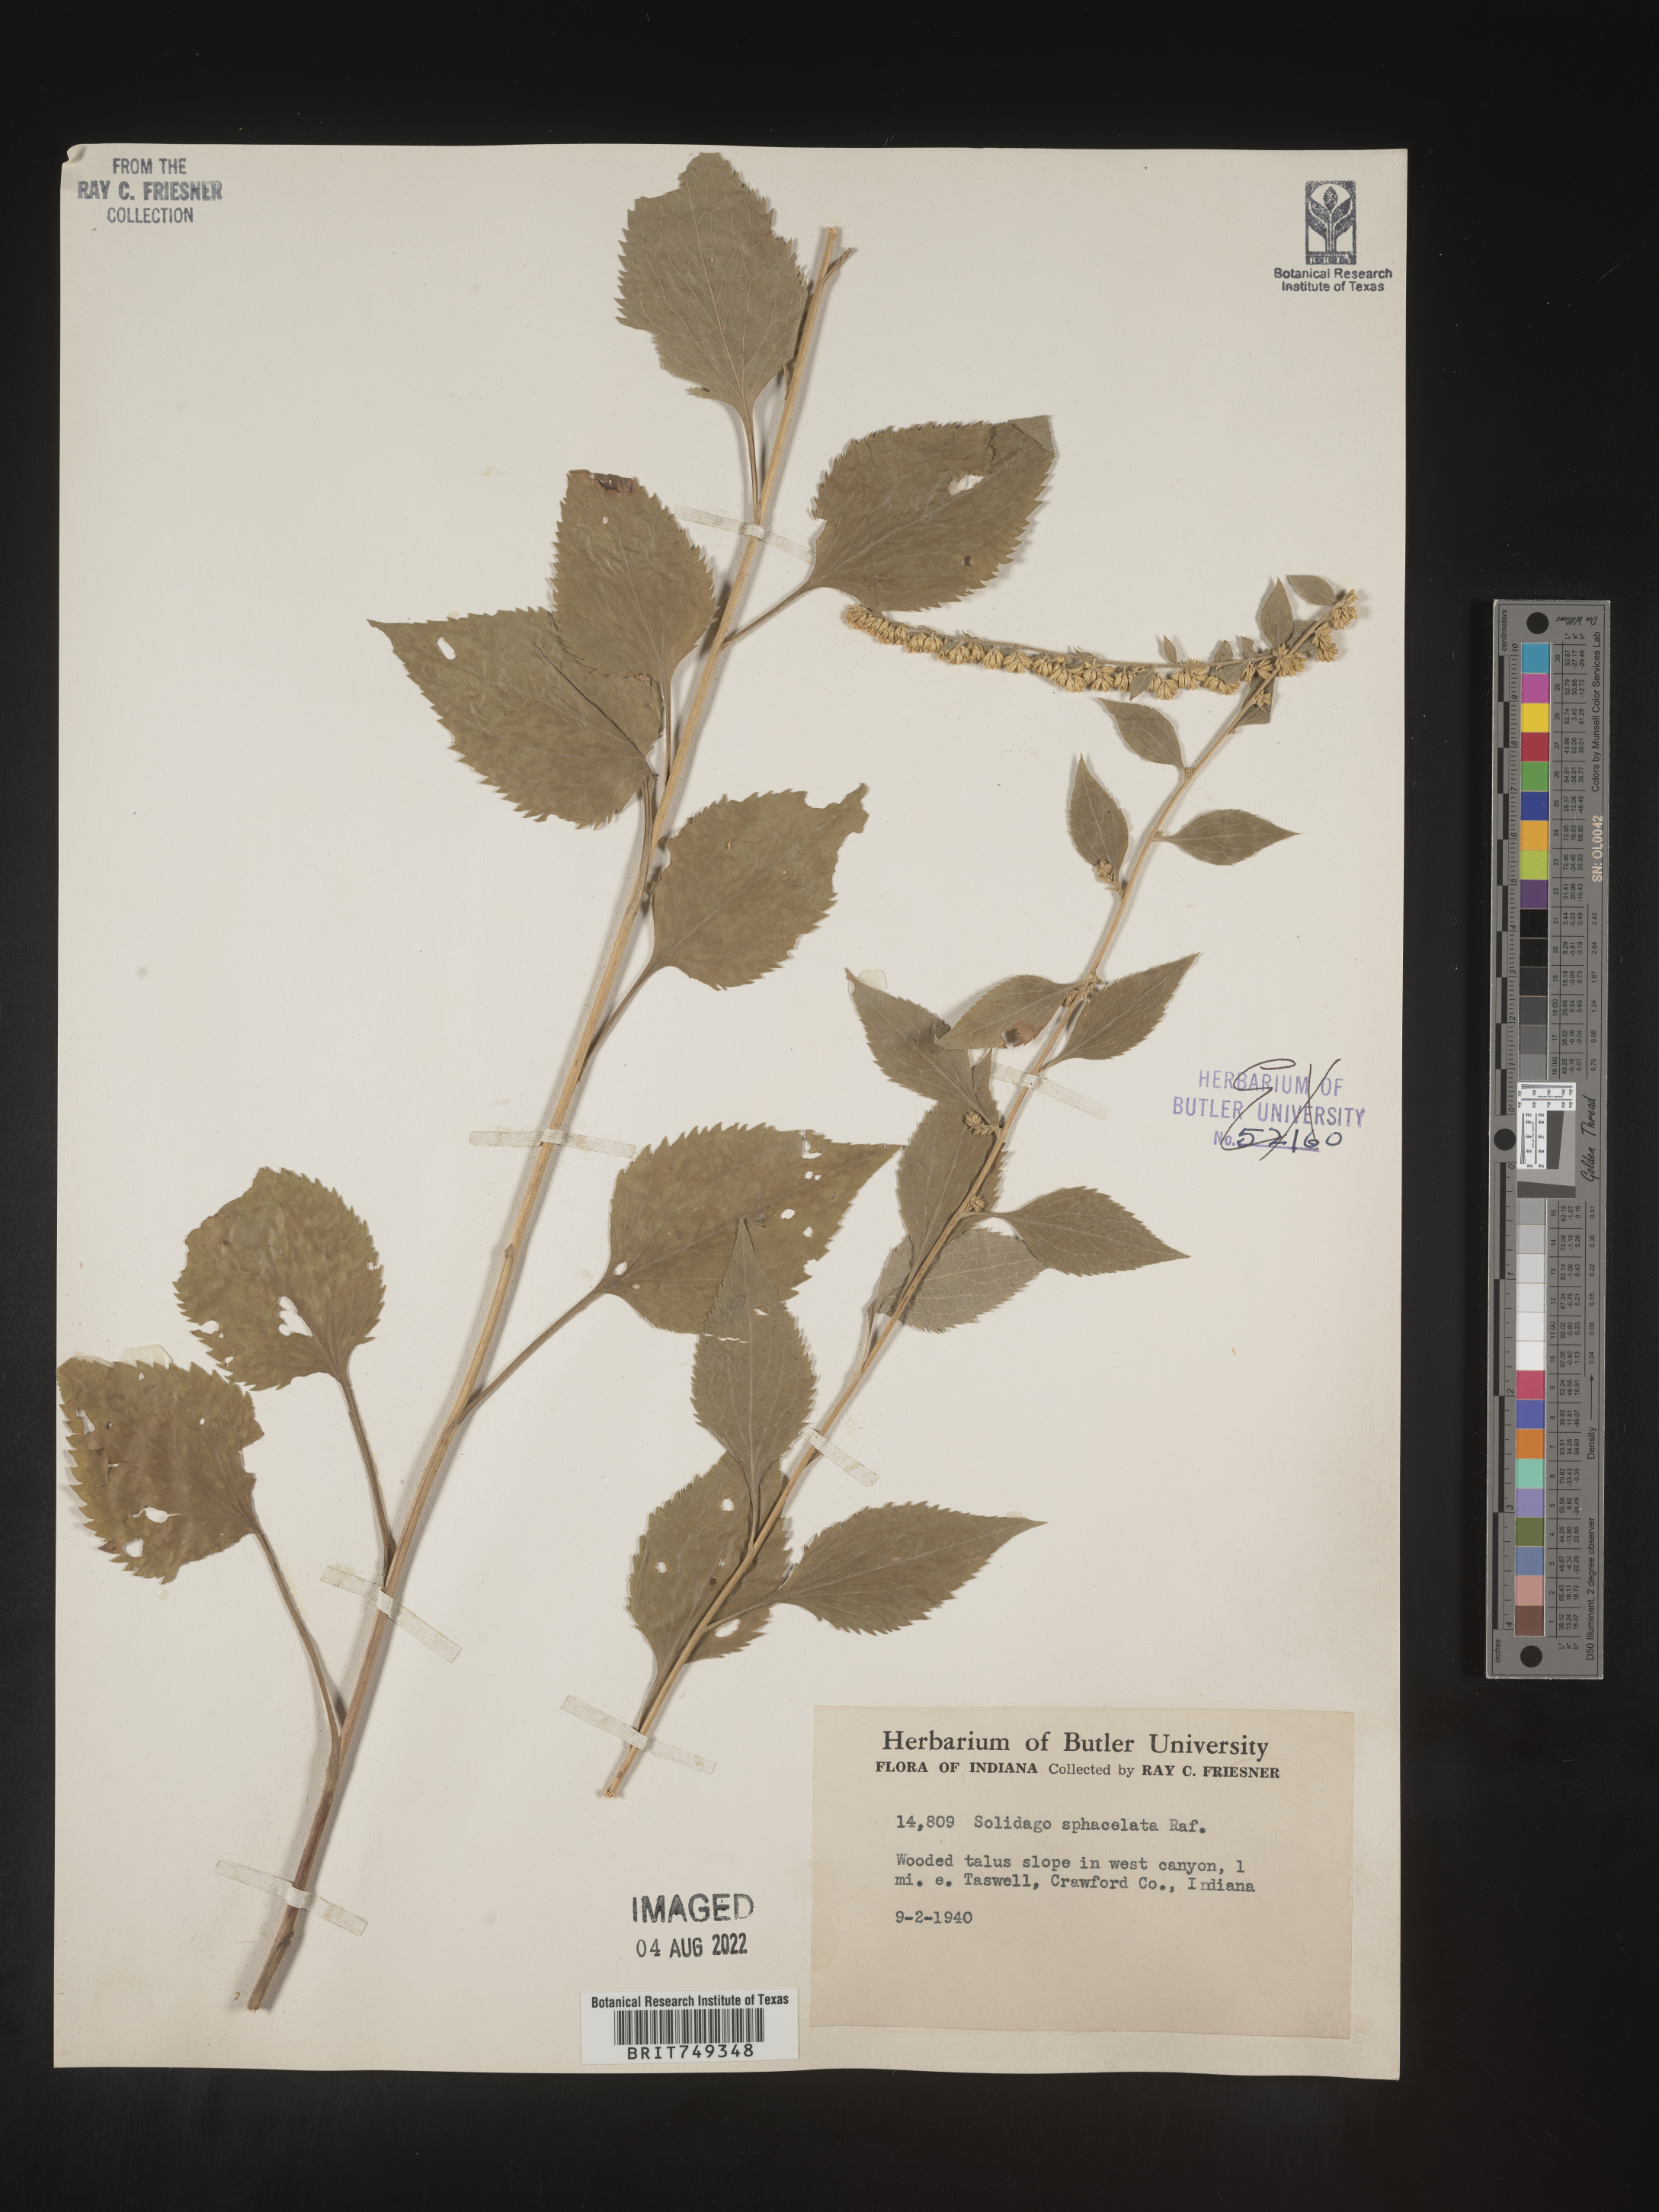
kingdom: Plantae
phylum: Tracheophyta
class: Magnoliopsida
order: Asterales
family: Asteraceae
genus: Solidago
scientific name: Solidago sphacelata
